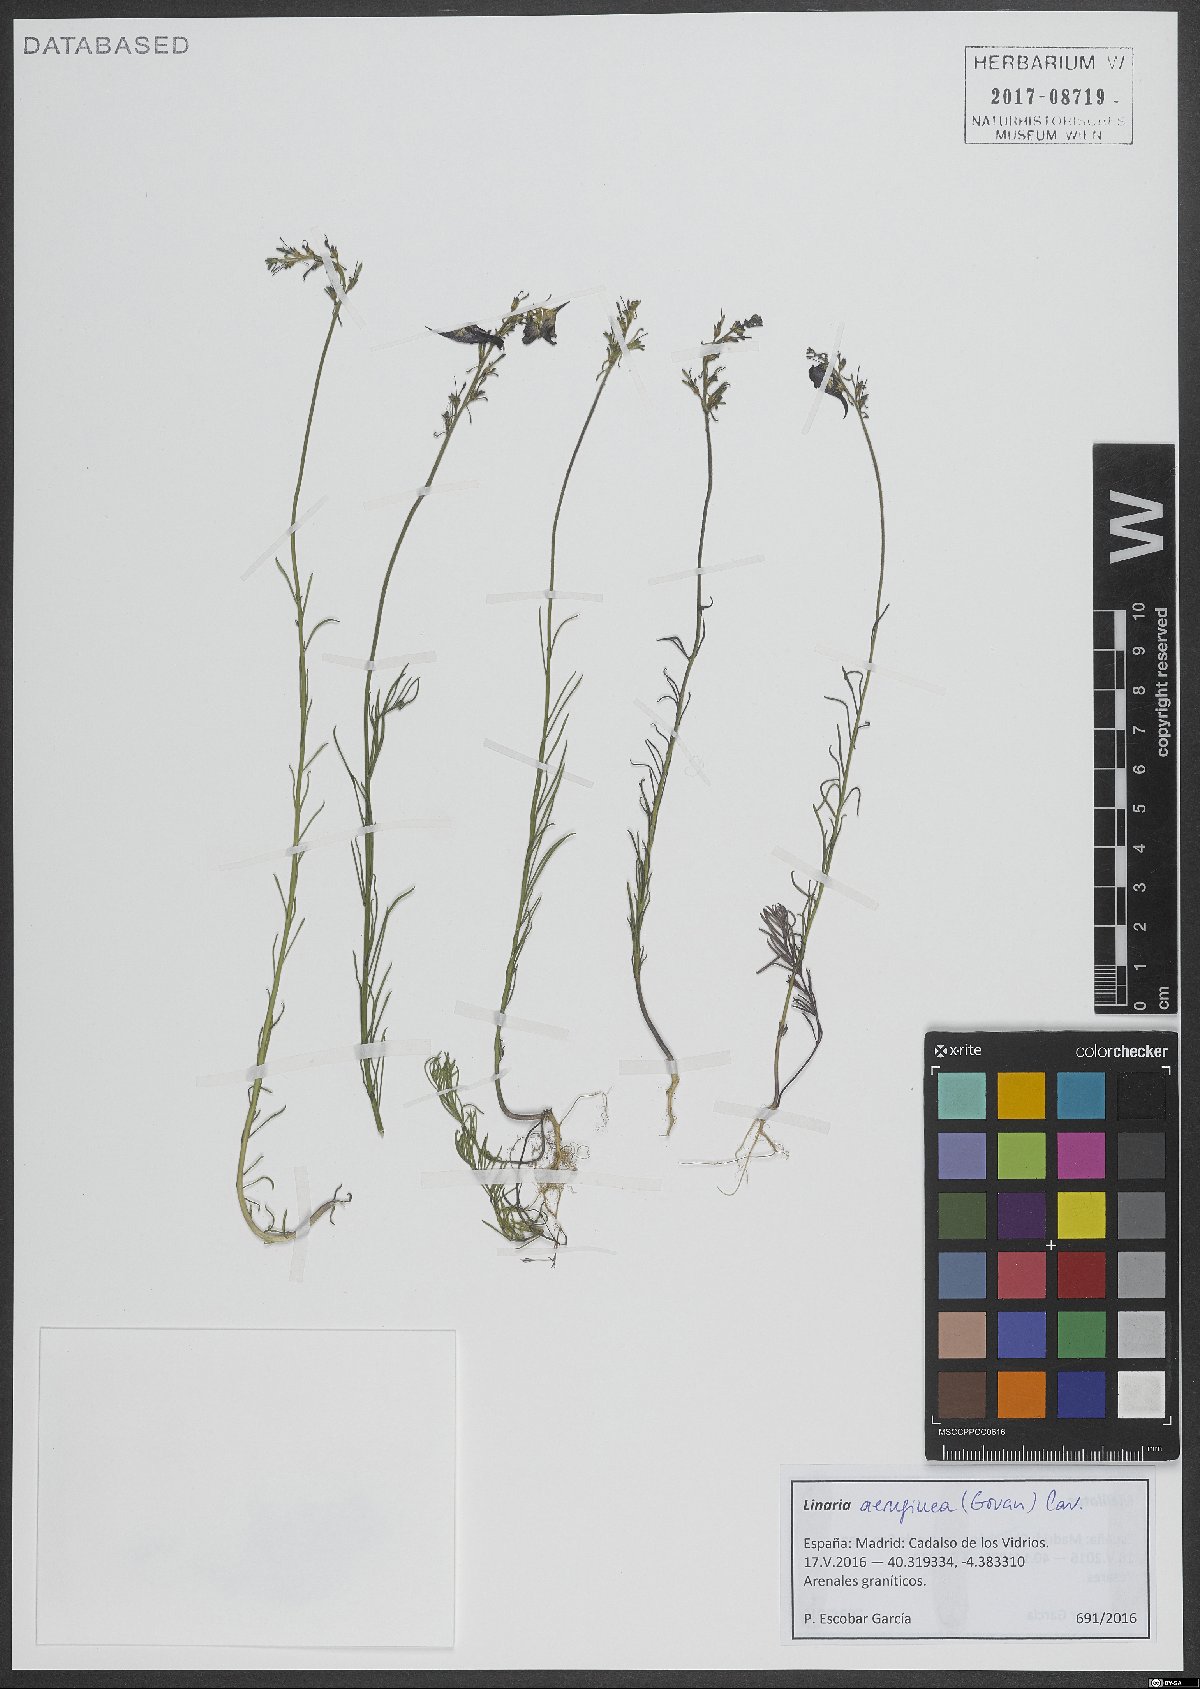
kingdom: Plantae
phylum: Tracheophyta
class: Magnoliopsida
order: Lamiales
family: Plantaginaceae
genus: Linaria
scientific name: Linaria aeruginea
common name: Roadside toadflax
